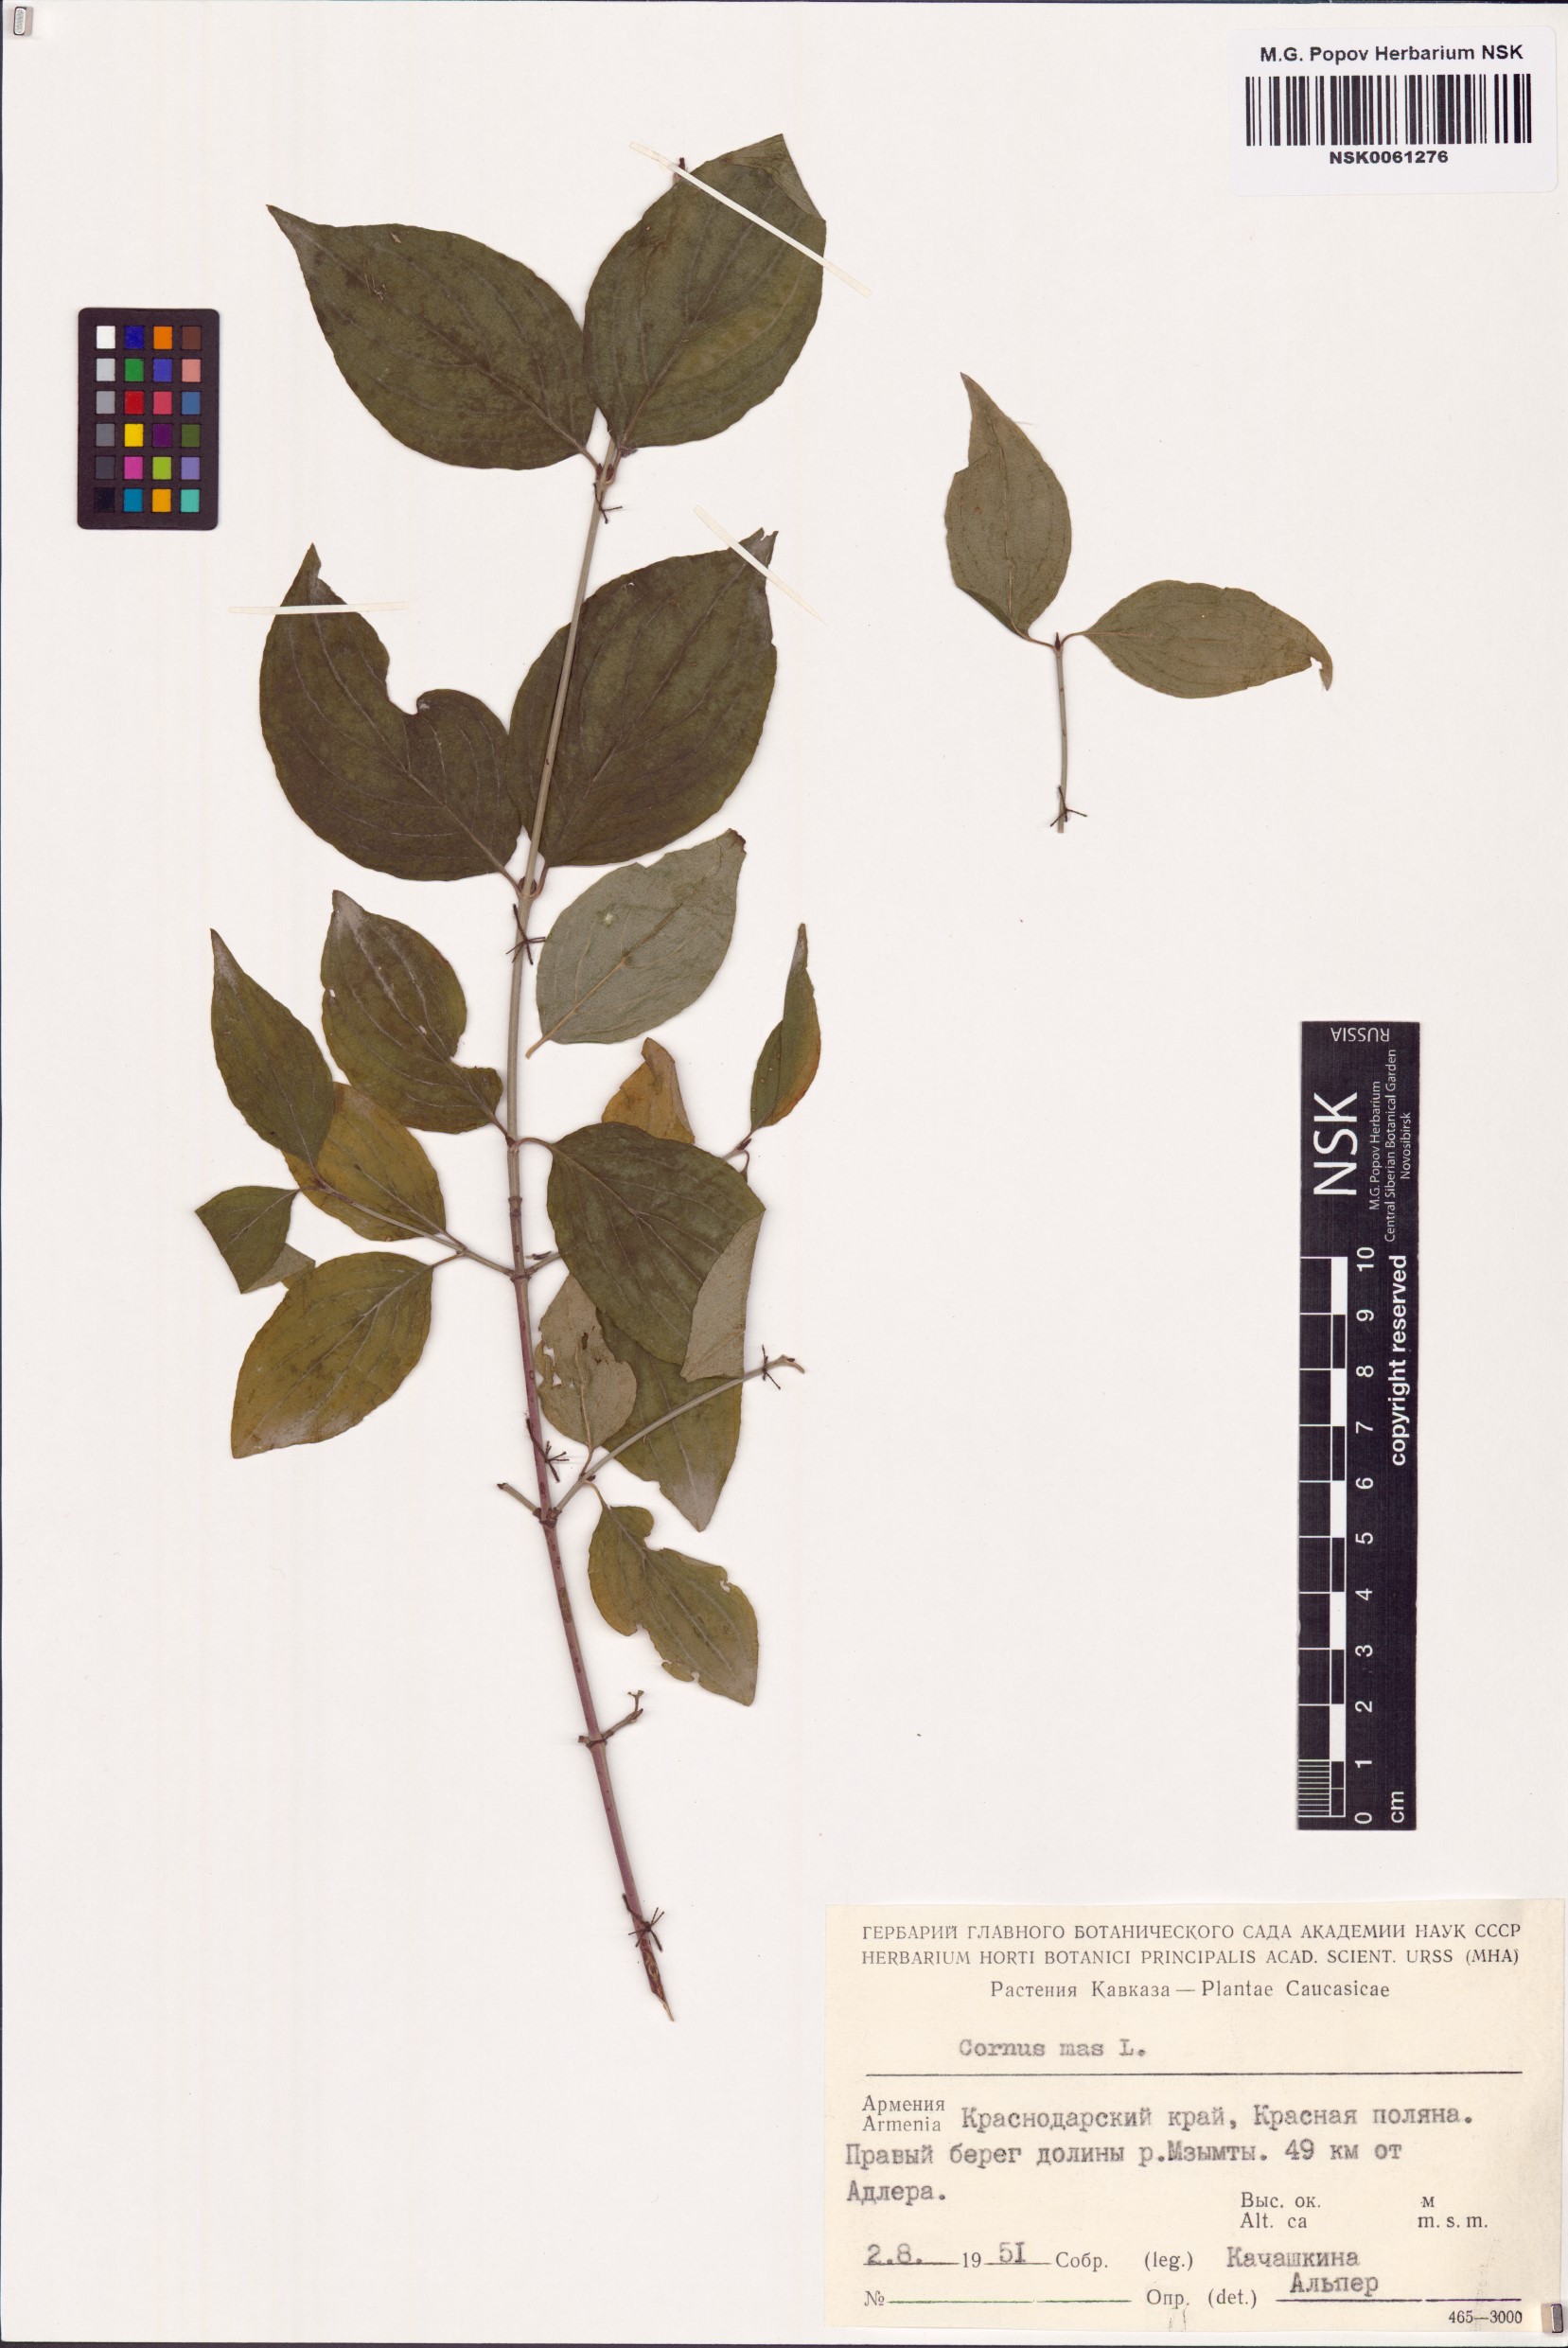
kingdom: Plantae
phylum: Tracheophyta
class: Magnoliopsida
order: Cornales
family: Cornaceae
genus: Cornus
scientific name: Cornus mas
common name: Cornelian-cherry
